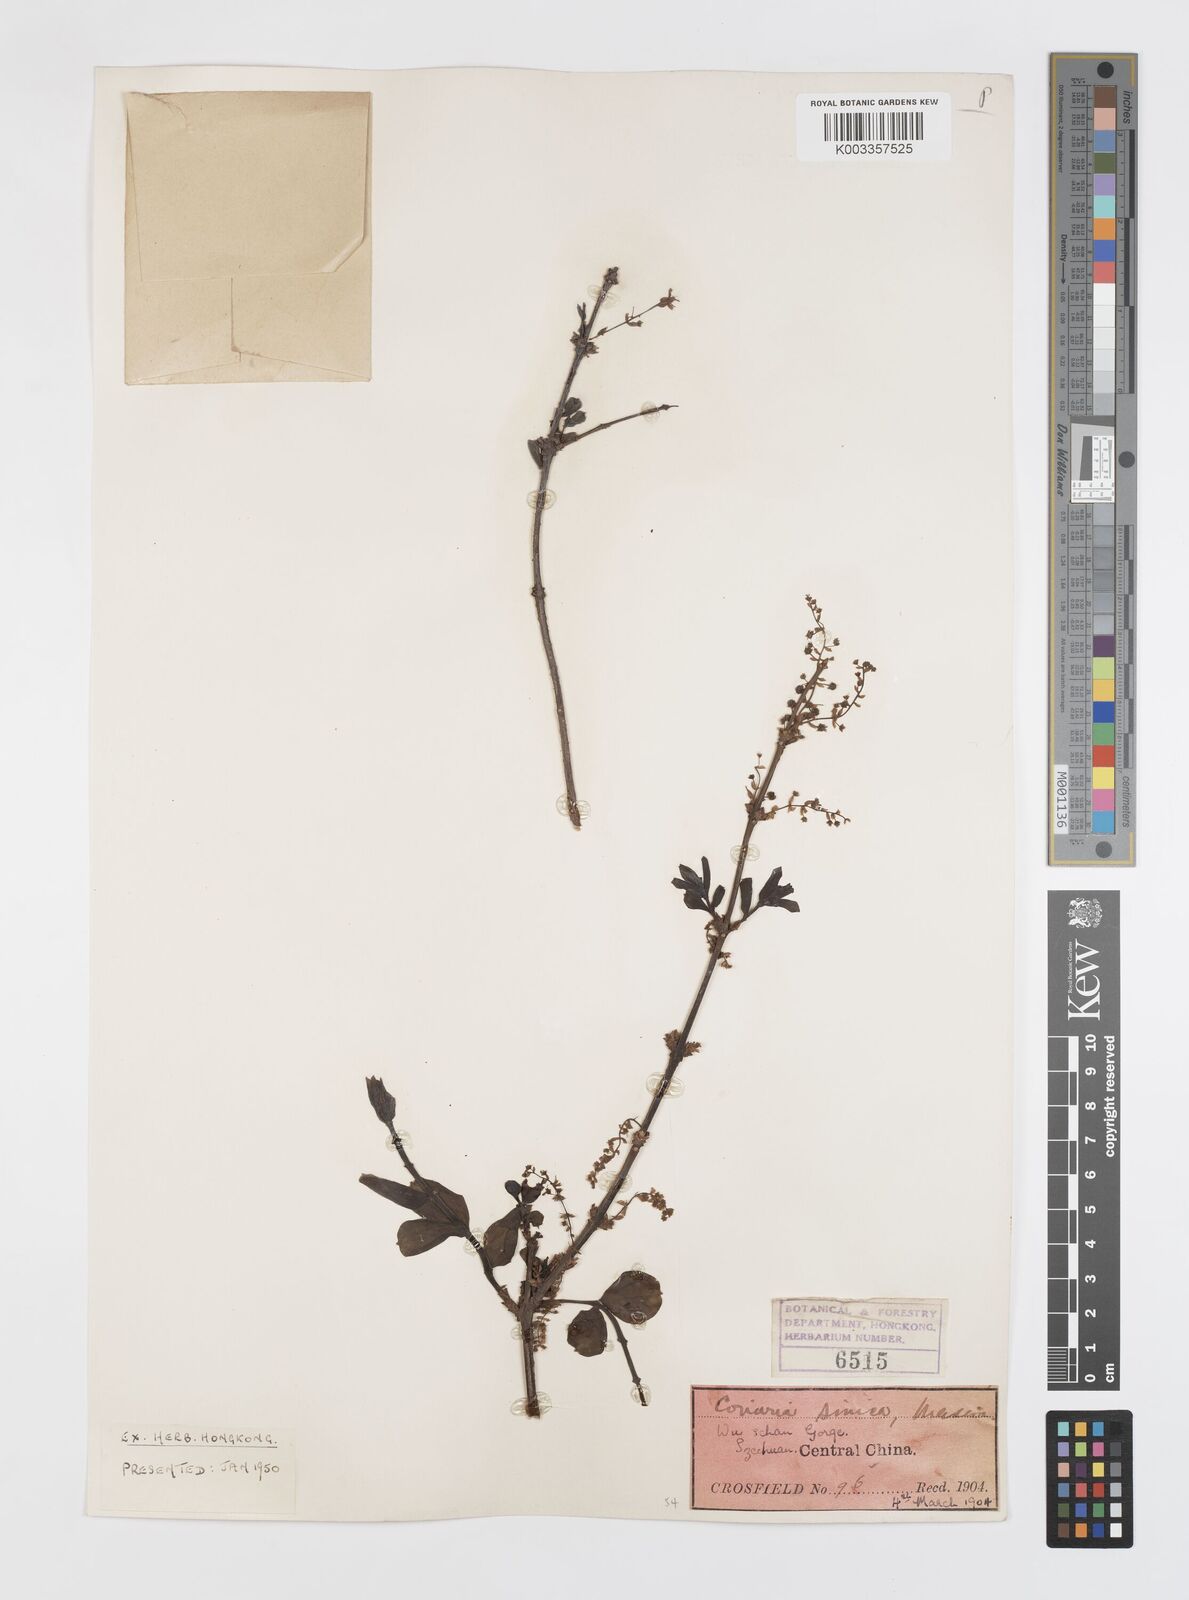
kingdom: Plantae
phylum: Tracheophyta
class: Magnoliopsida
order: Cucurbitales
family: Coriariaceae
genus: Coriaria
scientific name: Coriaria napalensis
